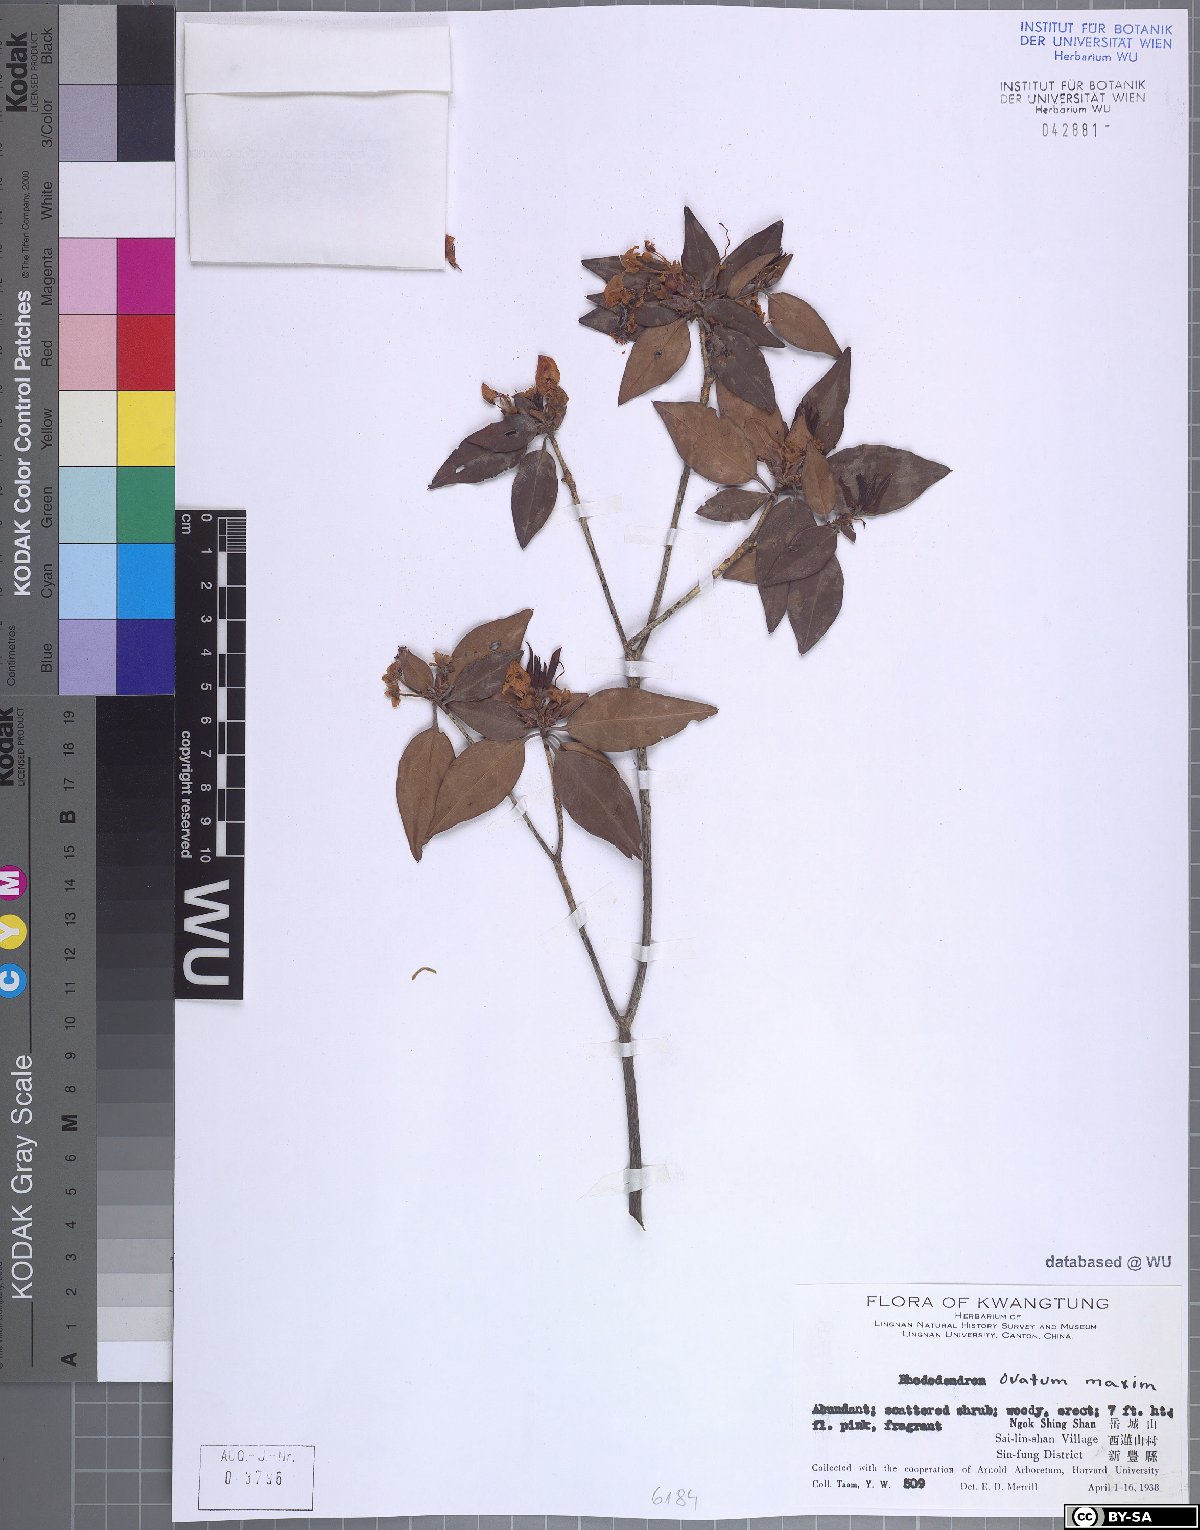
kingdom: Plantae
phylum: Tracheophyta
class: Magnoliopsida
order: Ericales
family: Ericaceae
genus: Rhododendron
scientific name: Rhododendron ovatum
